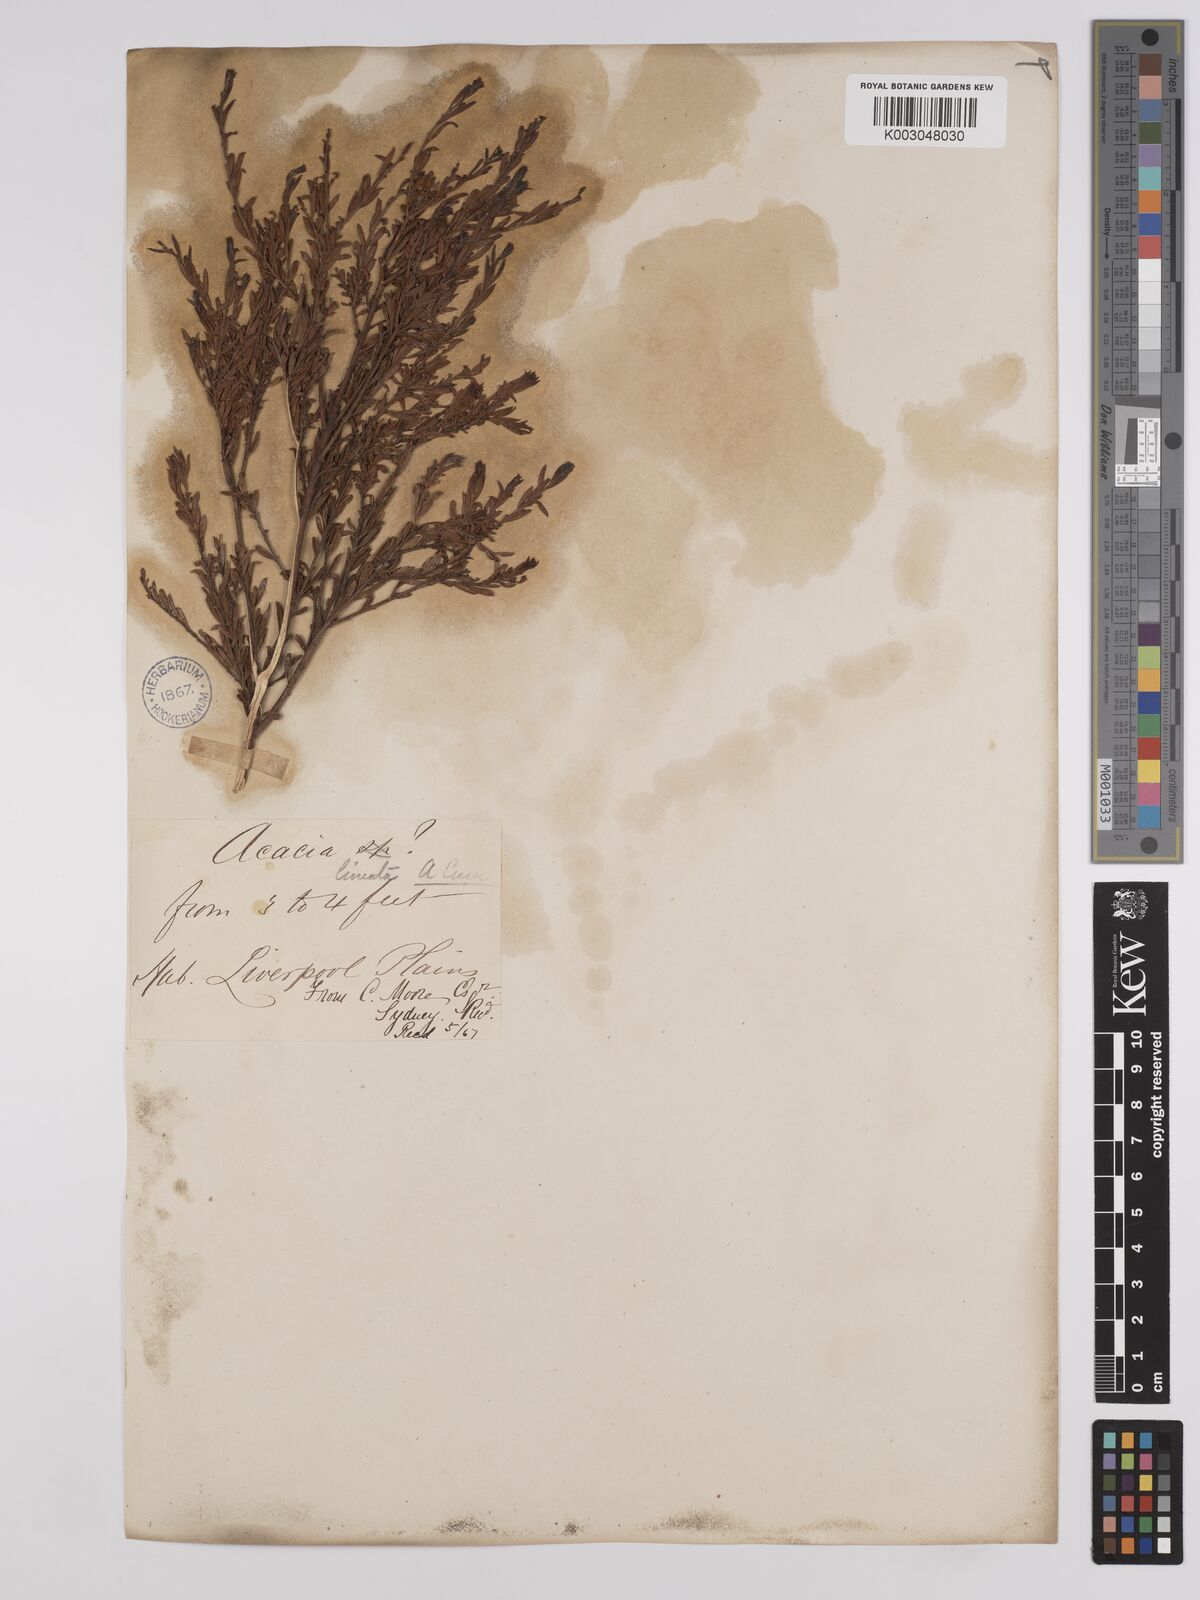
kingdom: Plantae
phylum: Tracheophyta
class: Magnoliopsida
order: Fabales
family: Fabaceae
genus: Acacia
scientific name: Acacia lineata
